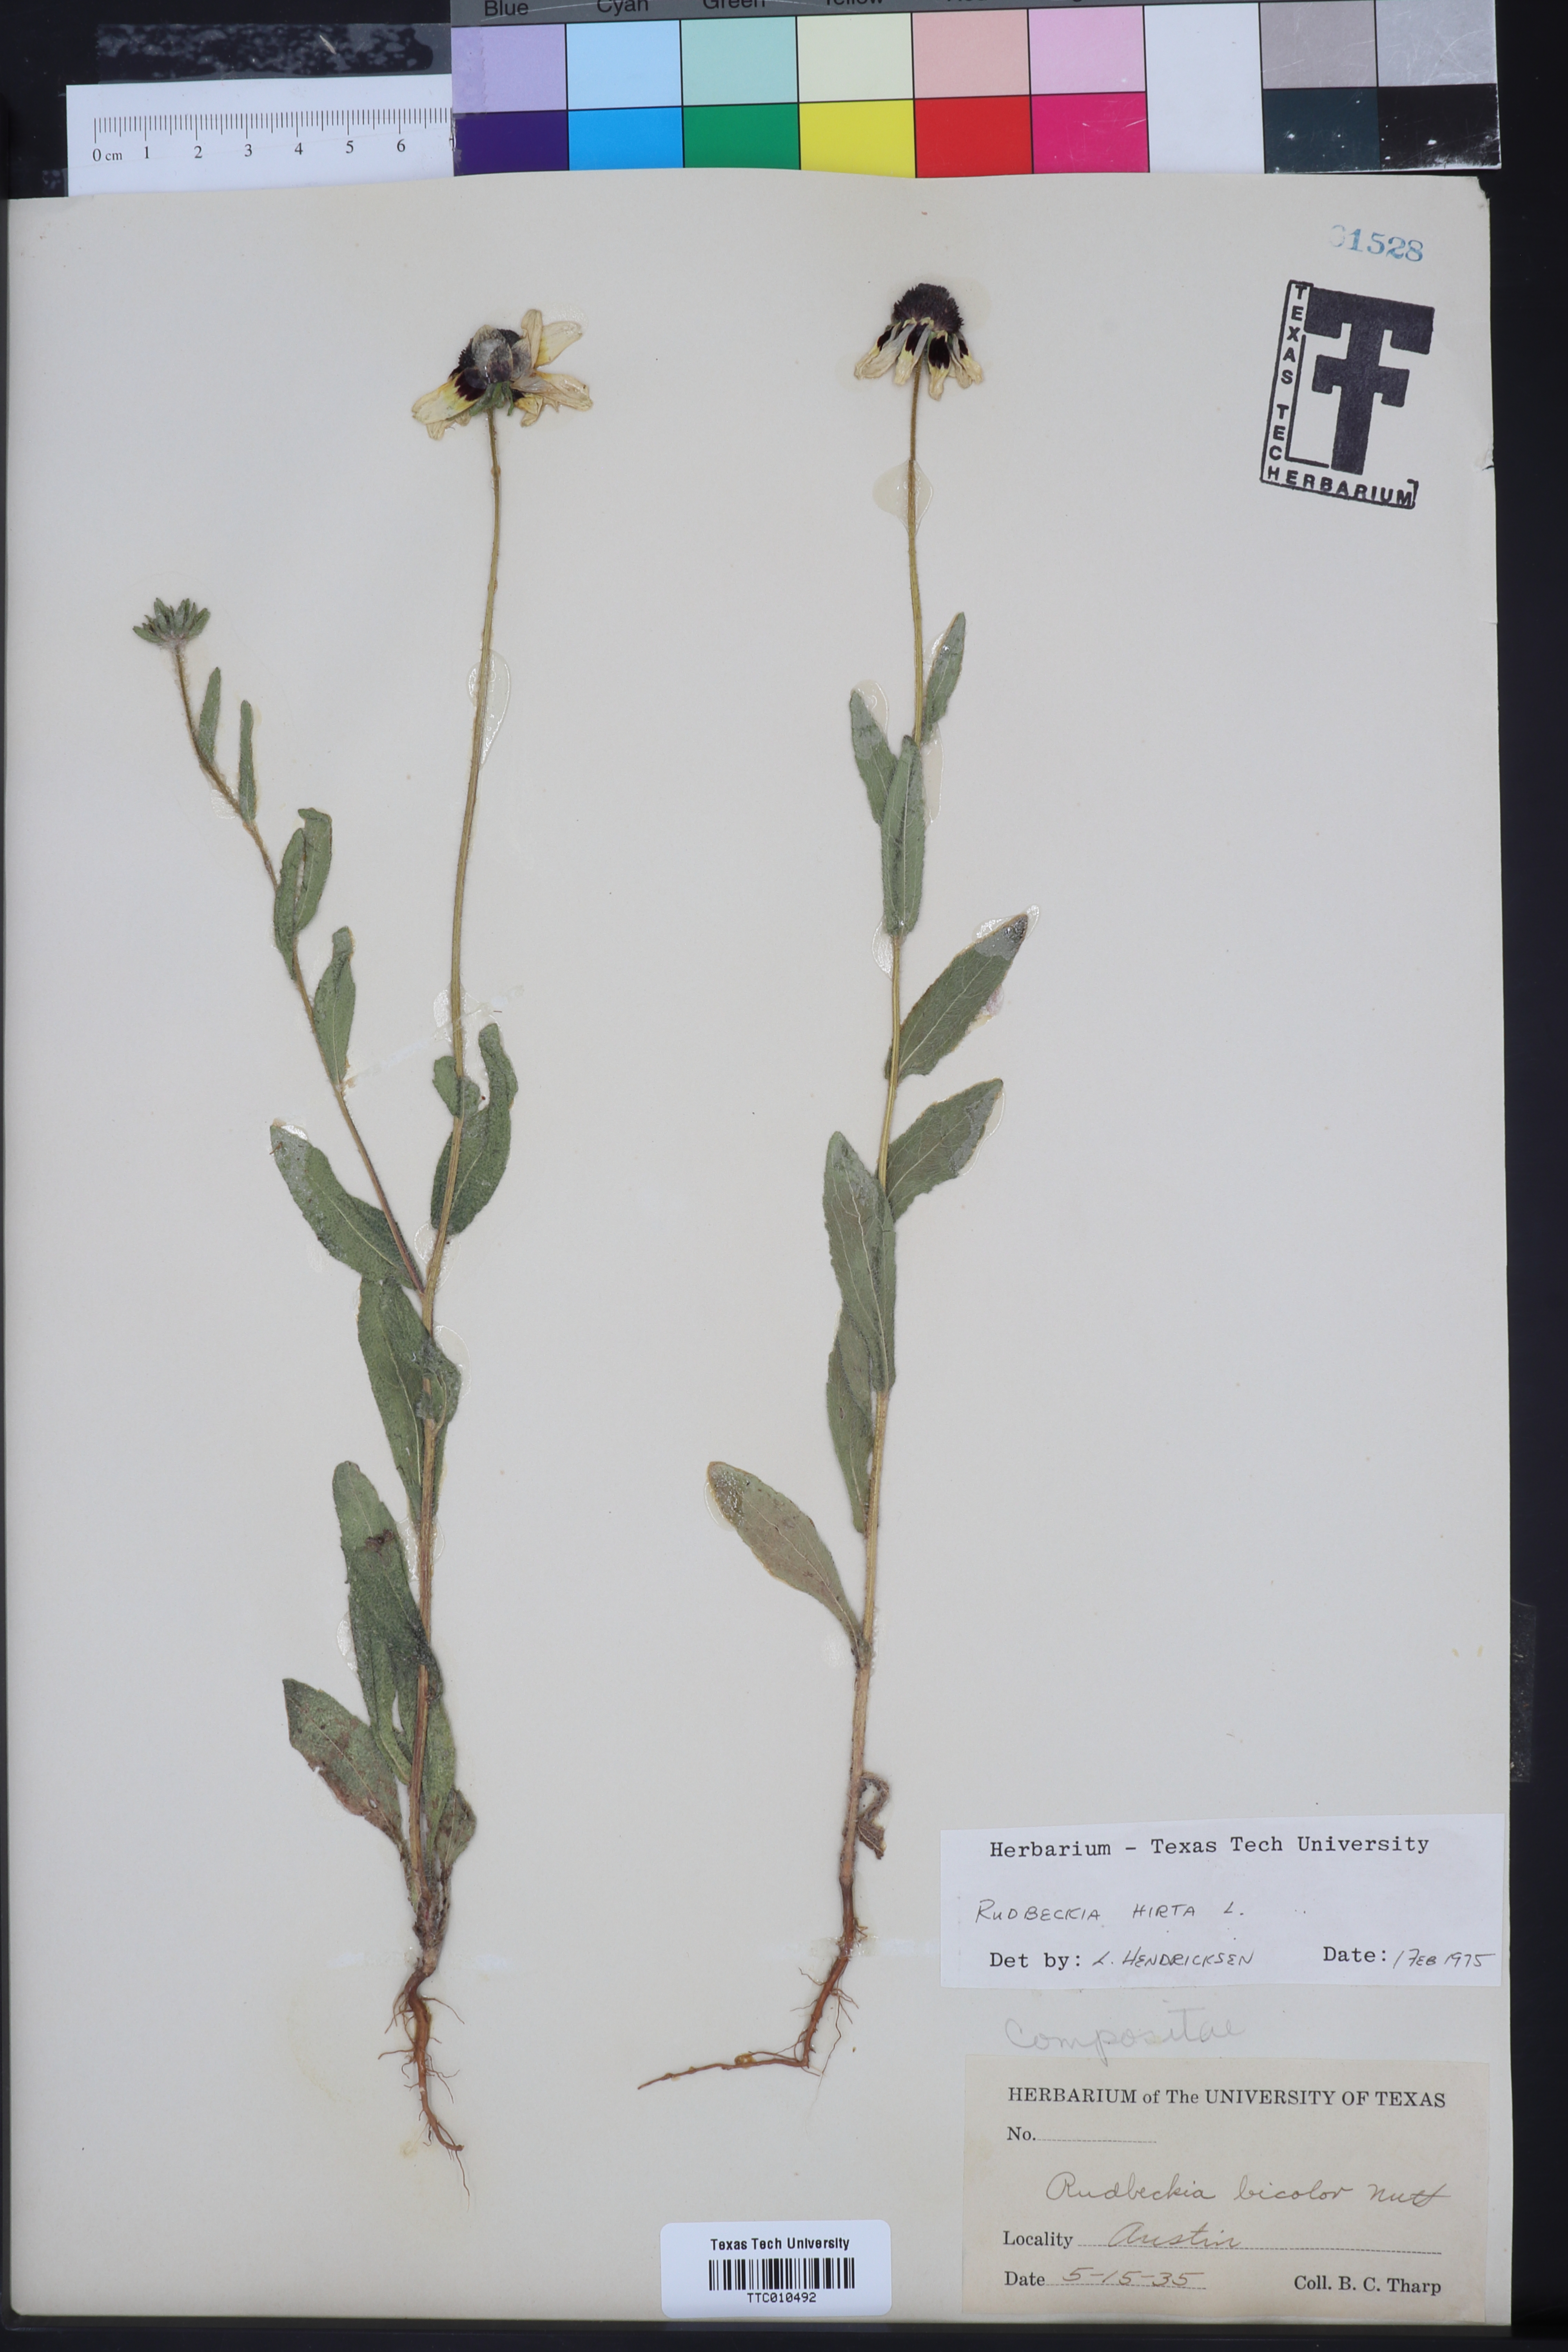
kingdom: Plantae
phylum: Tracheophyta
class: Magnoliopsida
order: Asterales
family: Asteraceae
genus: Rudbeckia
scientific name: Rudbeckia hirta
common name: Black-eyed-susan
